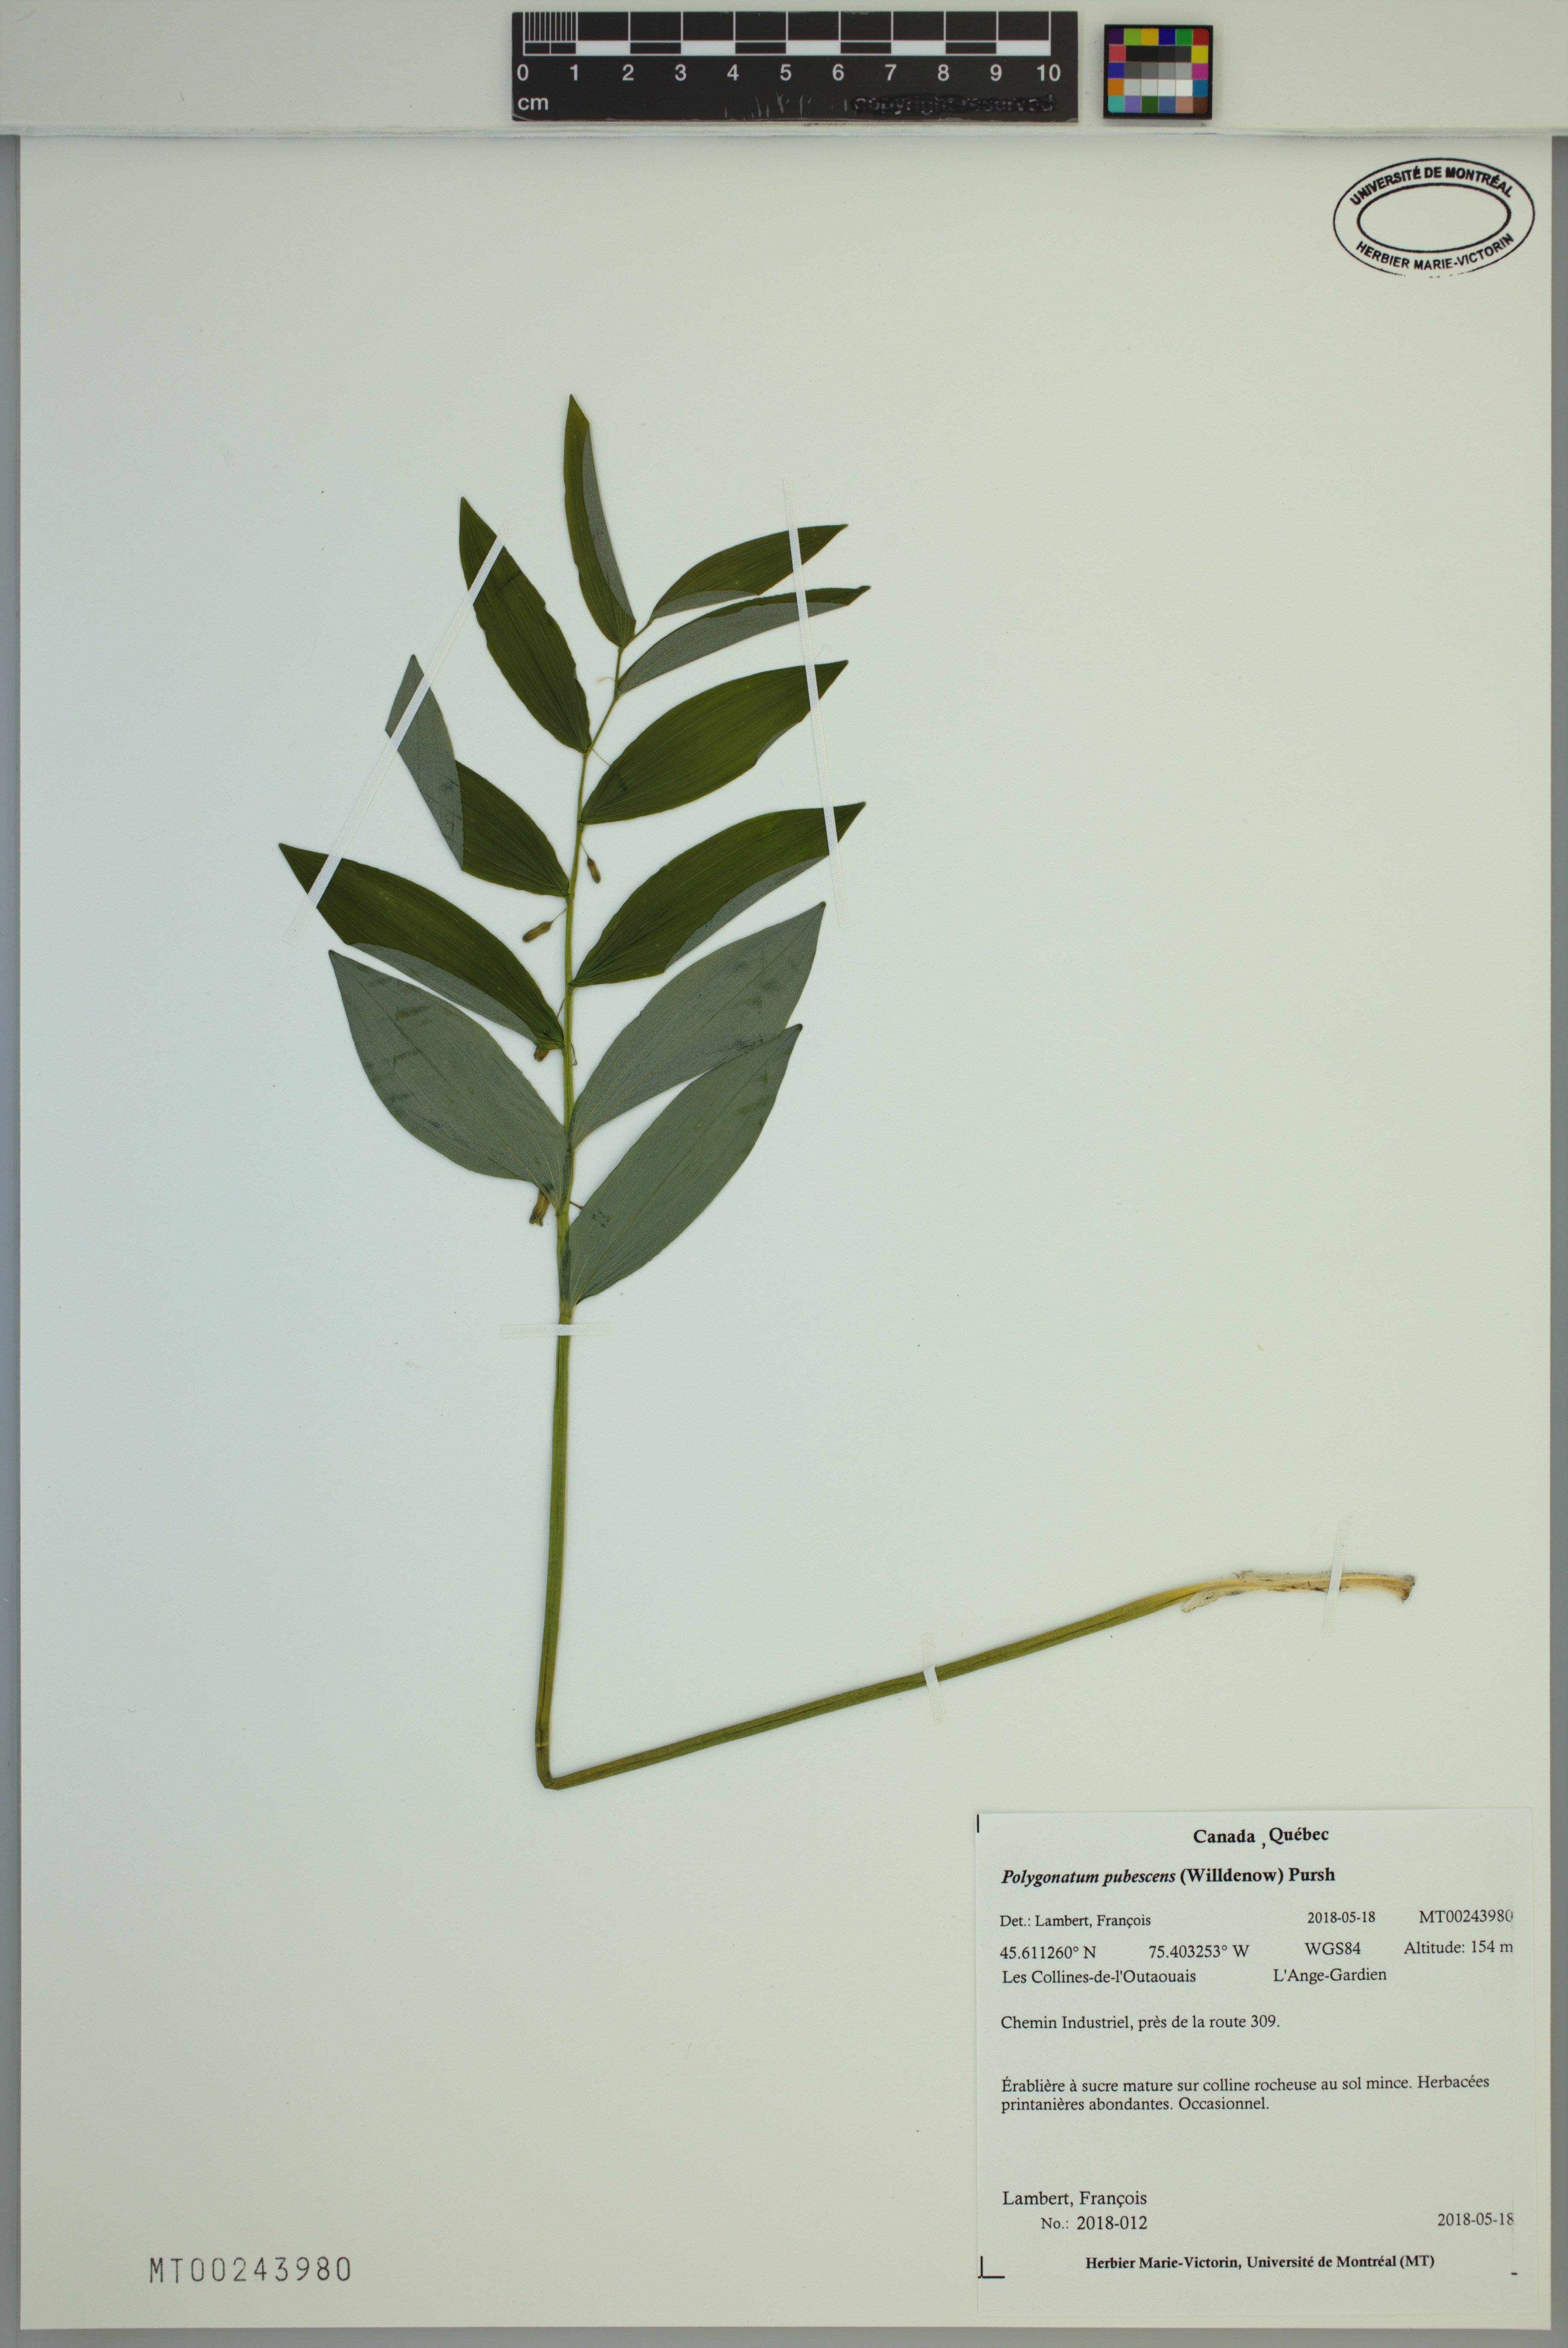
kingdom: Plantae
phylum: Tracheophyta
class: Liliopsida
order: Asparagales
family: Asparagaceae
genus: Polygonatum
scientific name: Polygonatum pubescens
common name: Downy solomon's seal
